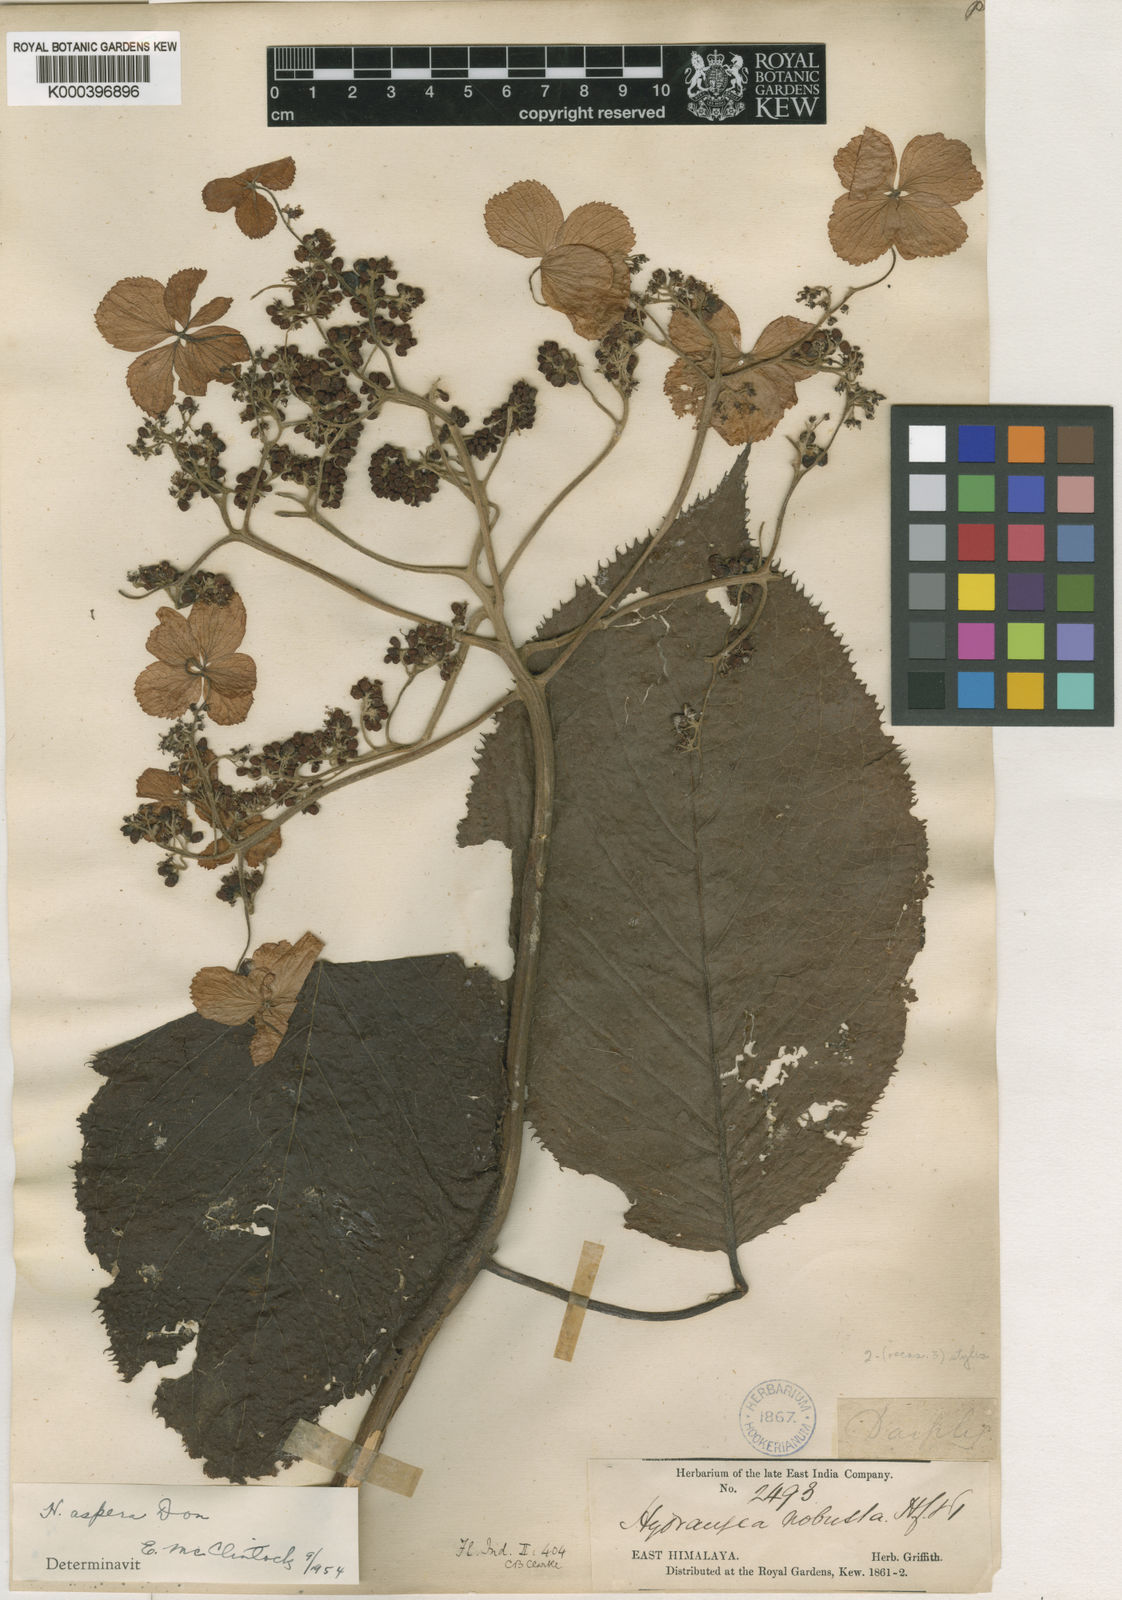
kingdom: Plantae
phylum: Tracheophyta
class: Magnoliopsida
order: Cornales
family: Hydrangeaceae
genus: Hydrangea
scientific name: Hydrangea aspera
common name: Rough-leaf hydrangea
